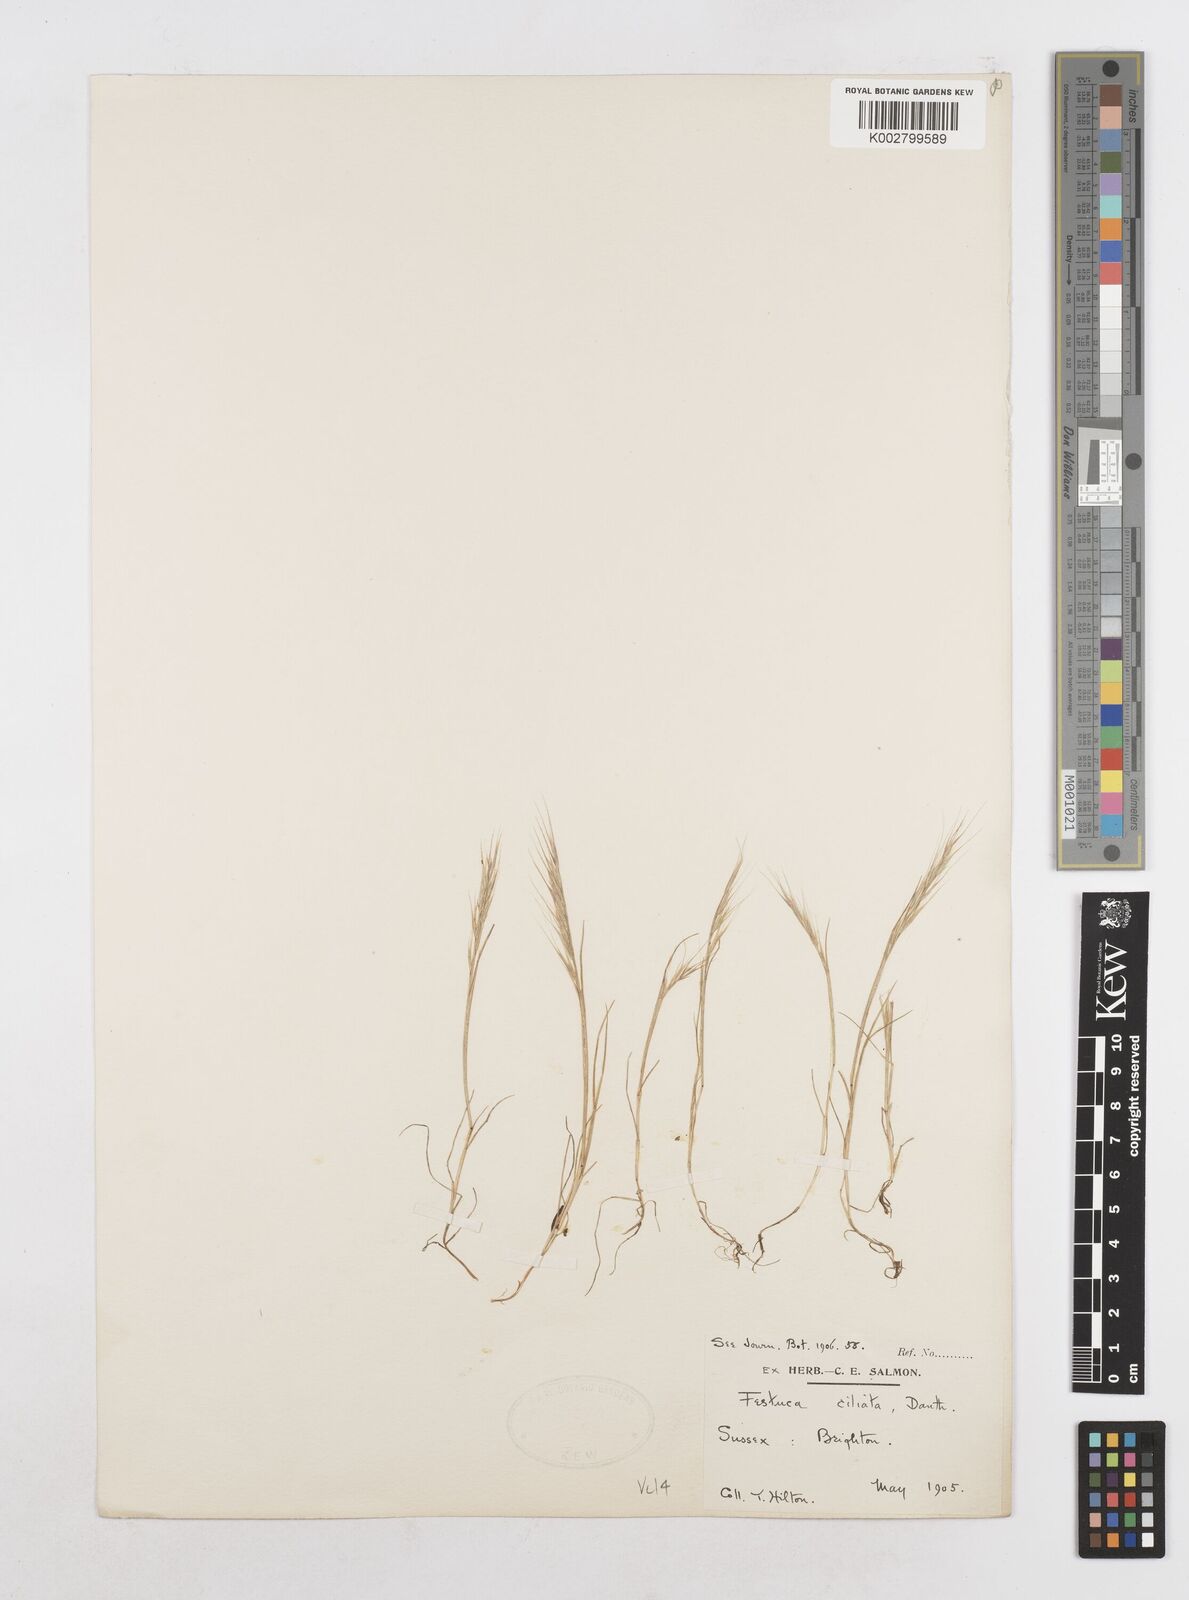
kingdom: Plantae
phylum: Tracheophyta
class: Liliopsida
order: Poales
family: Poaceae
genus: Festuca
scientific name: Festuca
